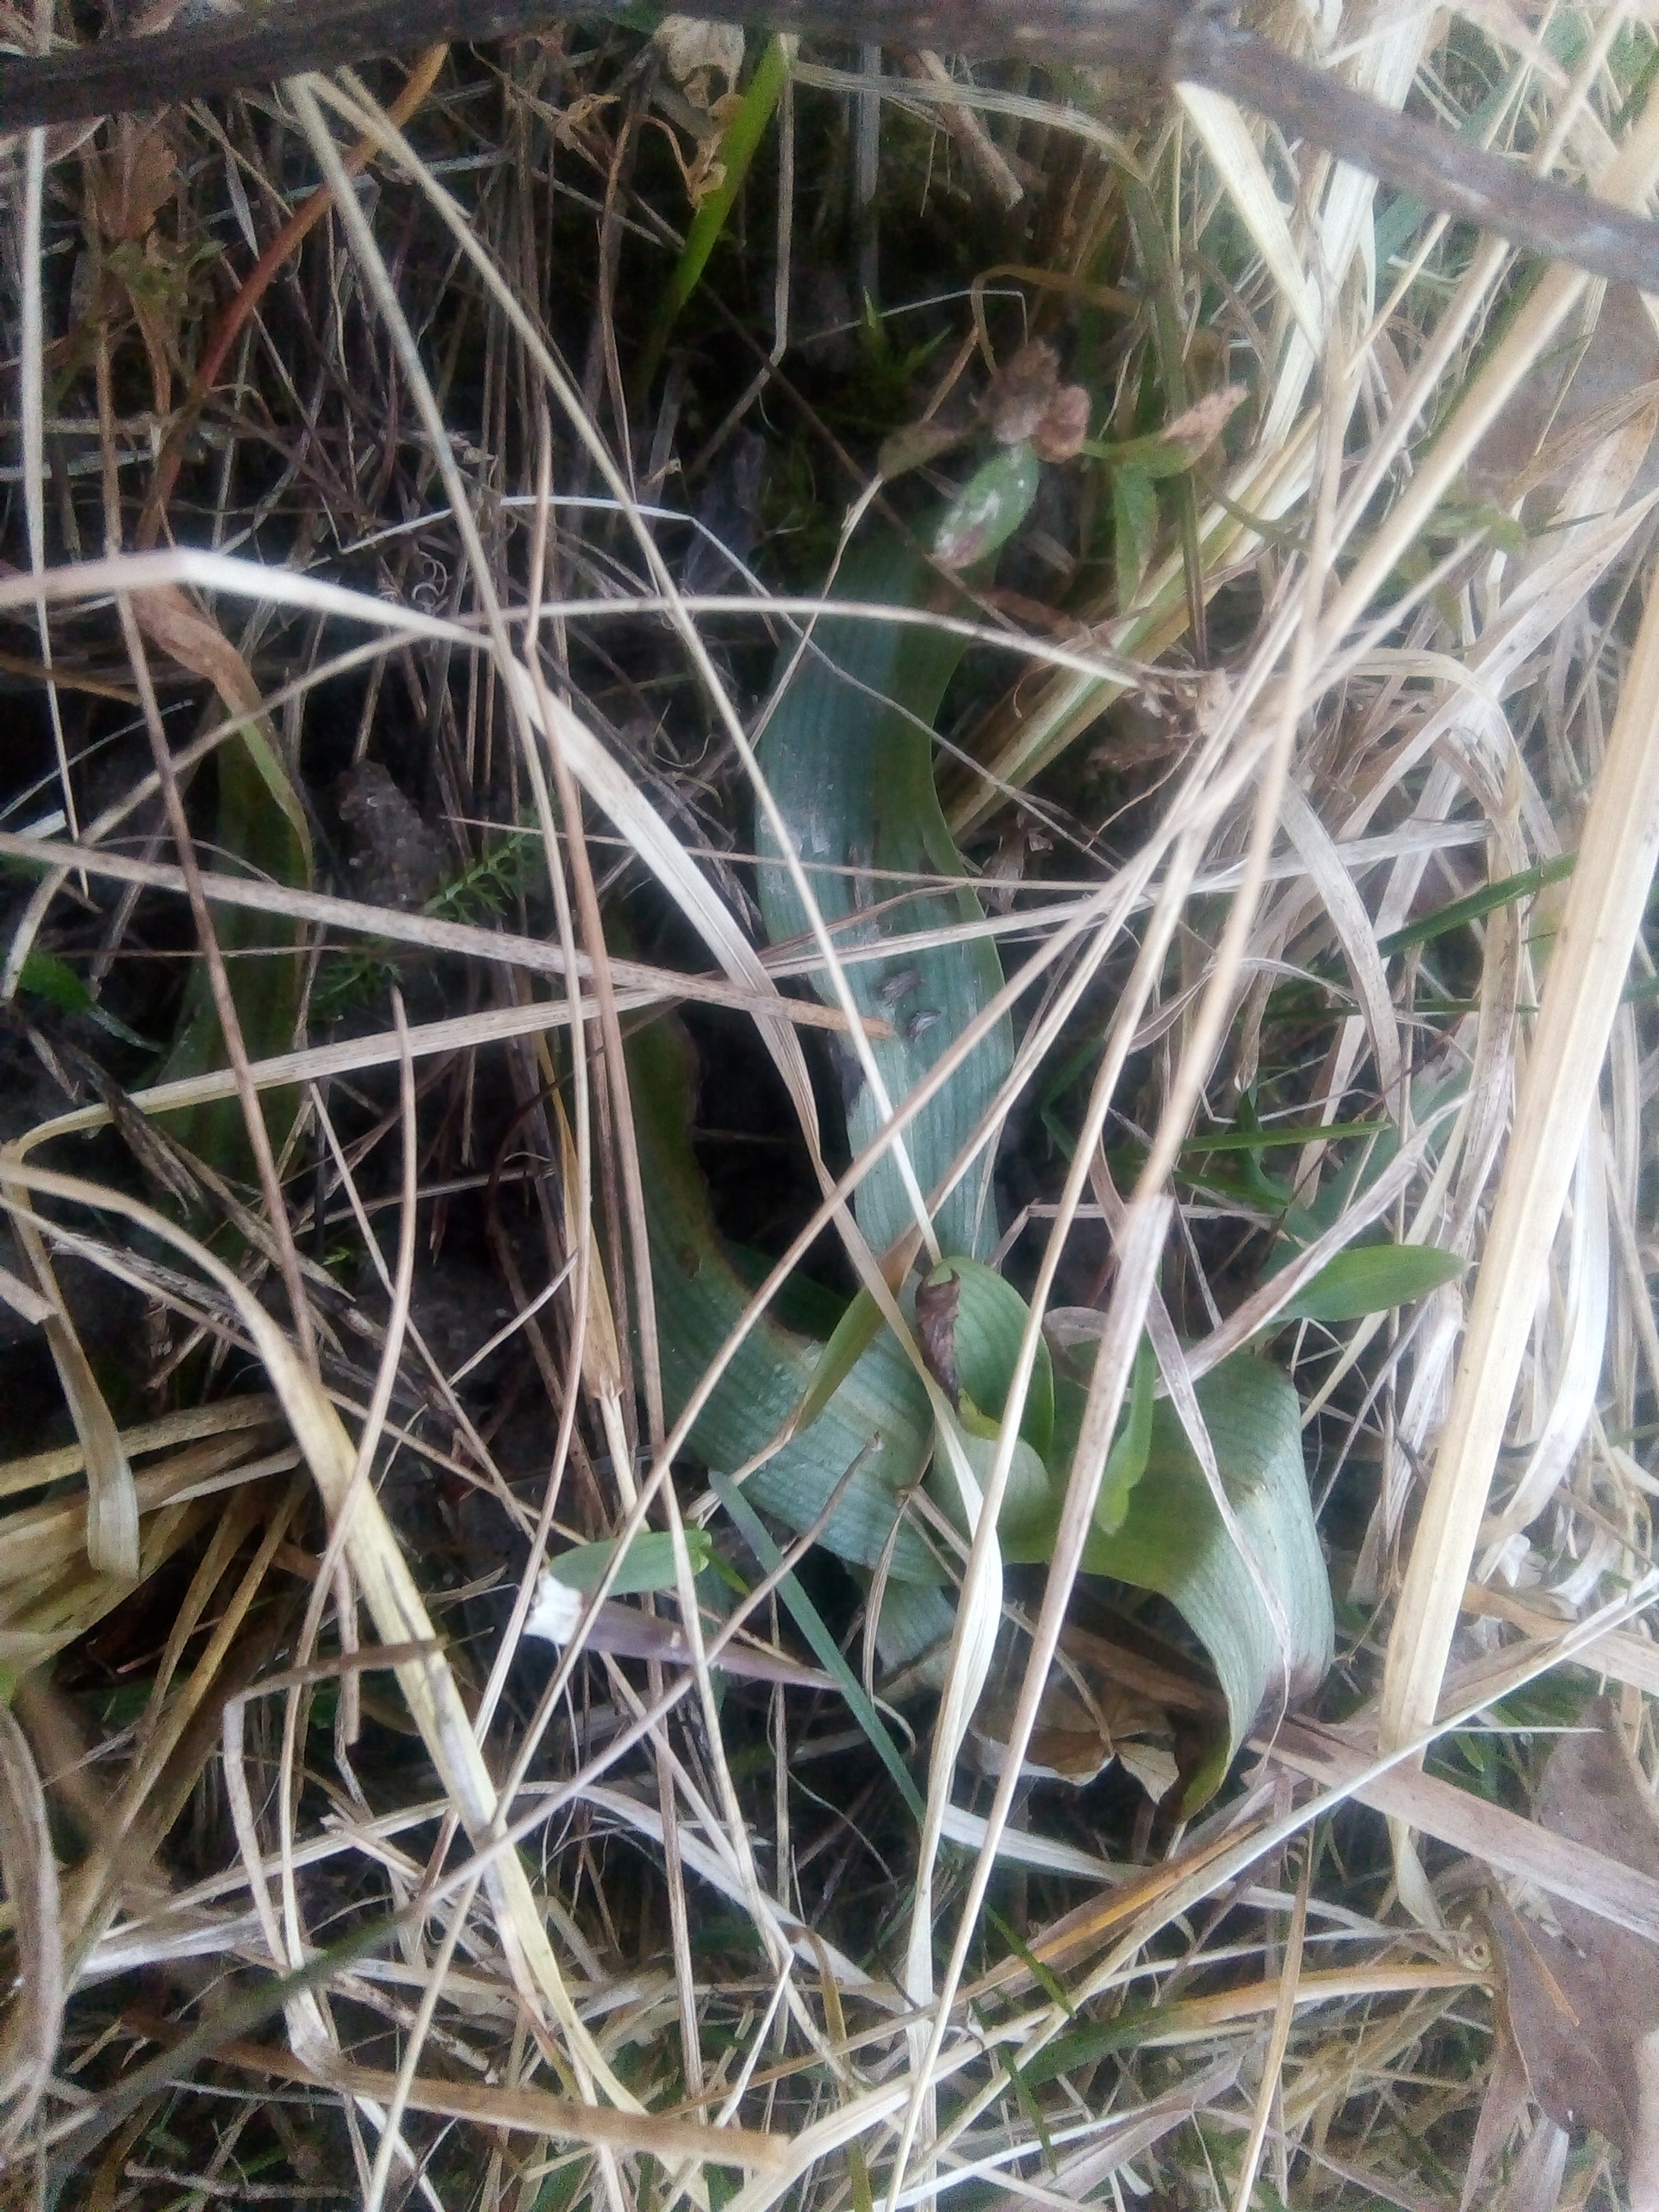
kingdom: Plantae
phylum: Tracheophyta
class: Liliopsida
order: Asparagales
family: Orchidaceae
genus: Ophrys
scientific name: Ophrys apifera
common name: Biblomst
